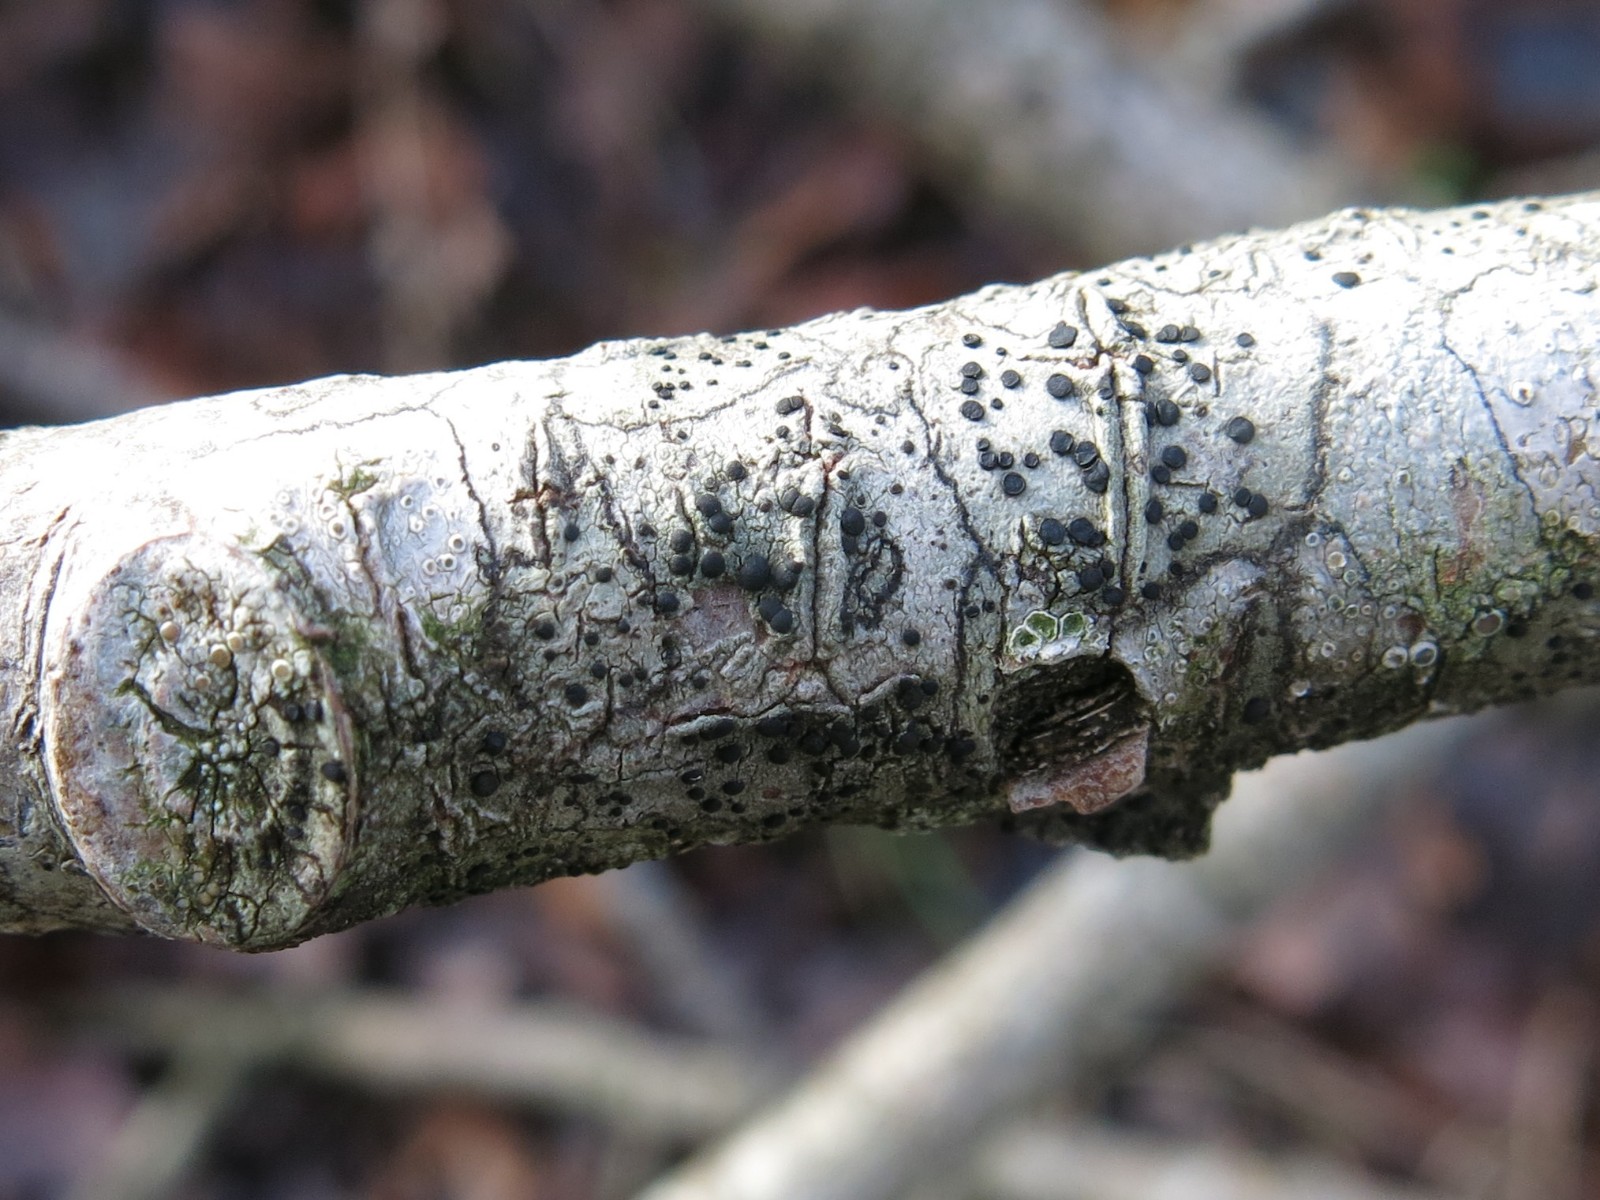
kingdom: Fungi
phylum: Ascomycota
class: Lecanoromycetes
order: Lecanorales
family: Lecanoraceae
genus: Lecidella
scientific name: Lecidella elaeochroma
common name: grågrøn skivelav
